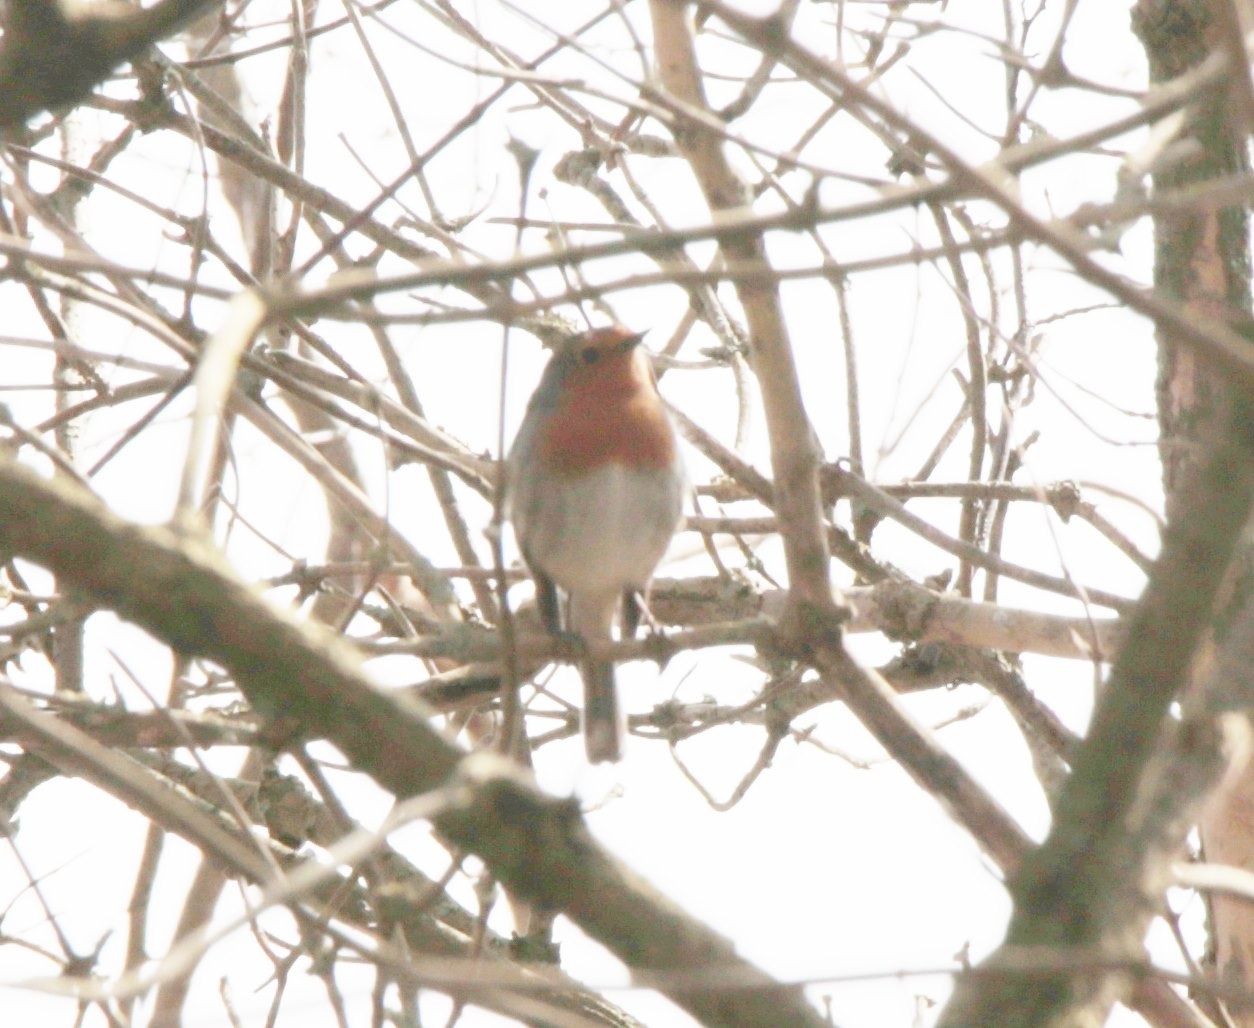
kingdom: Animalia
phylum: Chordata
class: Aves
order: Passeriformes
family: Muscicapidae
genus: Erithacus
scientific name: Erithacus rubecula
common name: Rødhals/rødkælk
